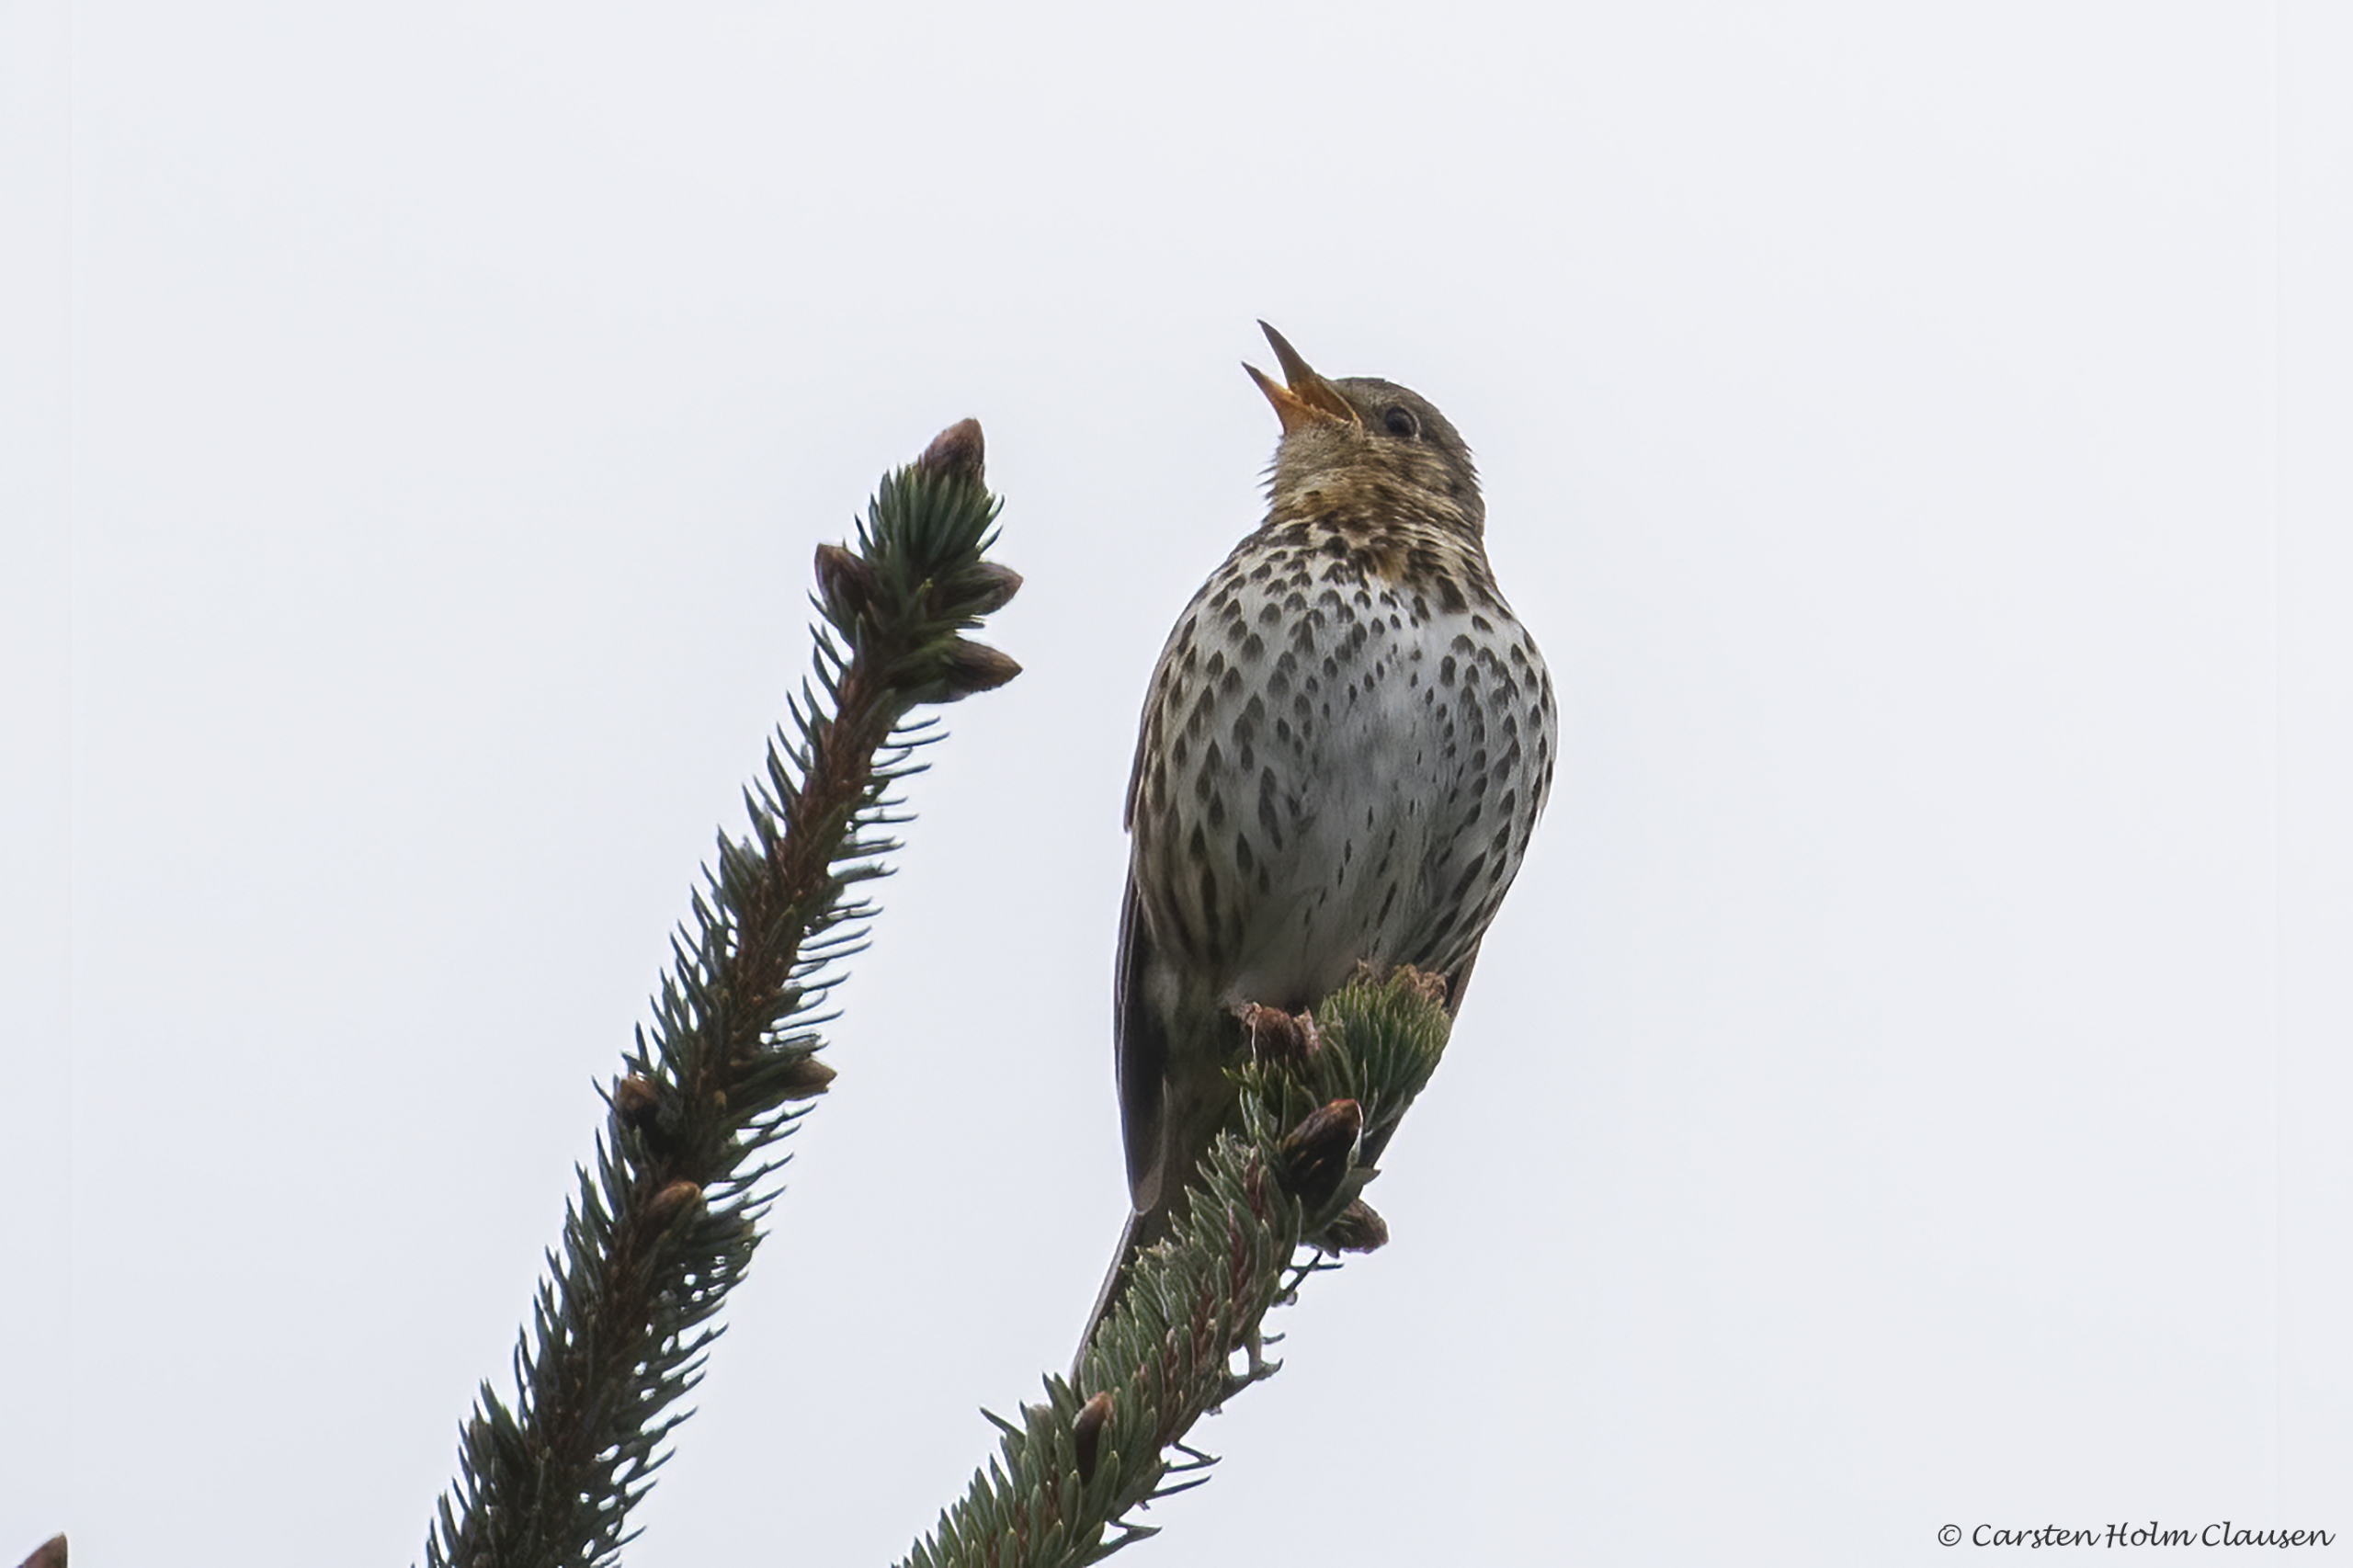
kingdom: Animalia
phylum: Chordata
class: Aves
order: Passeriformes
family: Turdidae
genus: Turdus
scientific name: Turdus philomelos
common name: Sangdrossel
